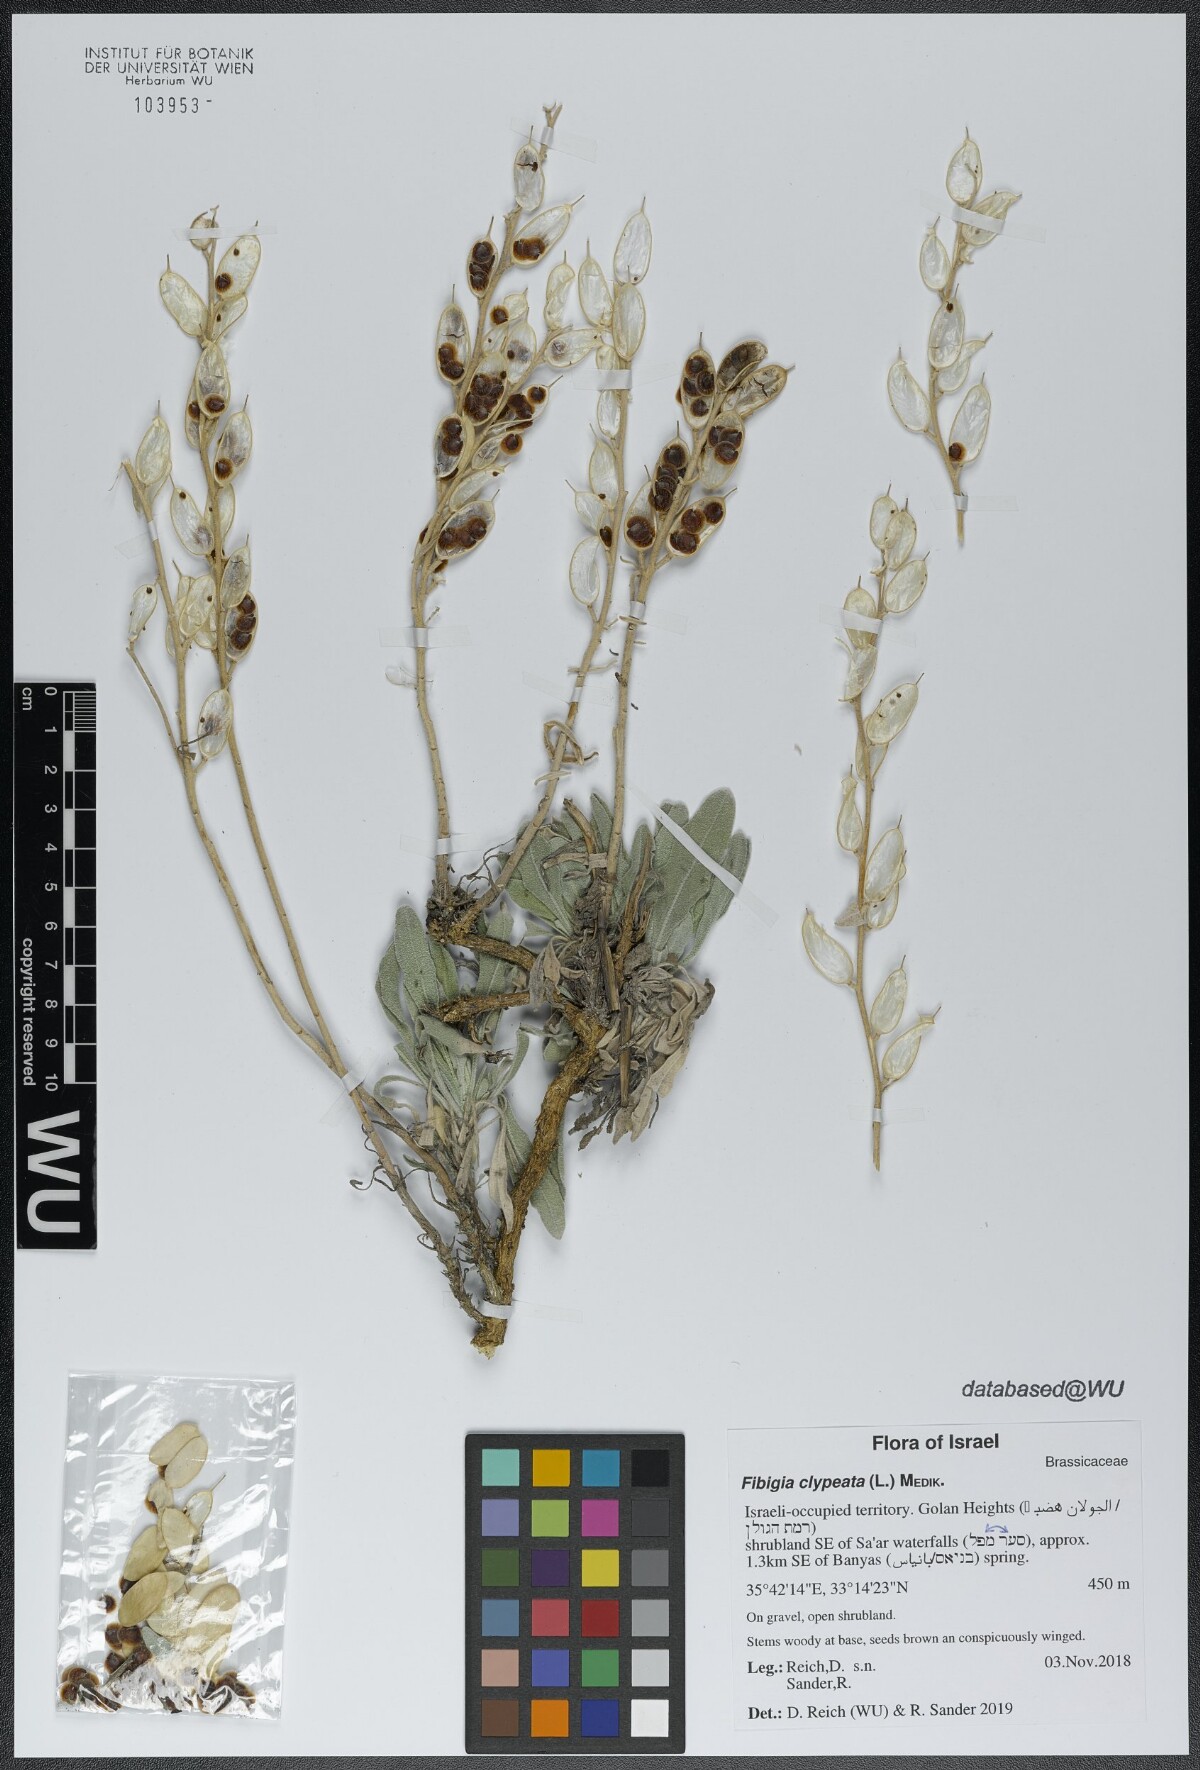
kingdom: Plantae
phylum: Tracheophyta
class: Magnoliopsida
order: Brassicales
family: Brassicaceae
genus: Fibigia
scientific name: Fibigia clypeata
